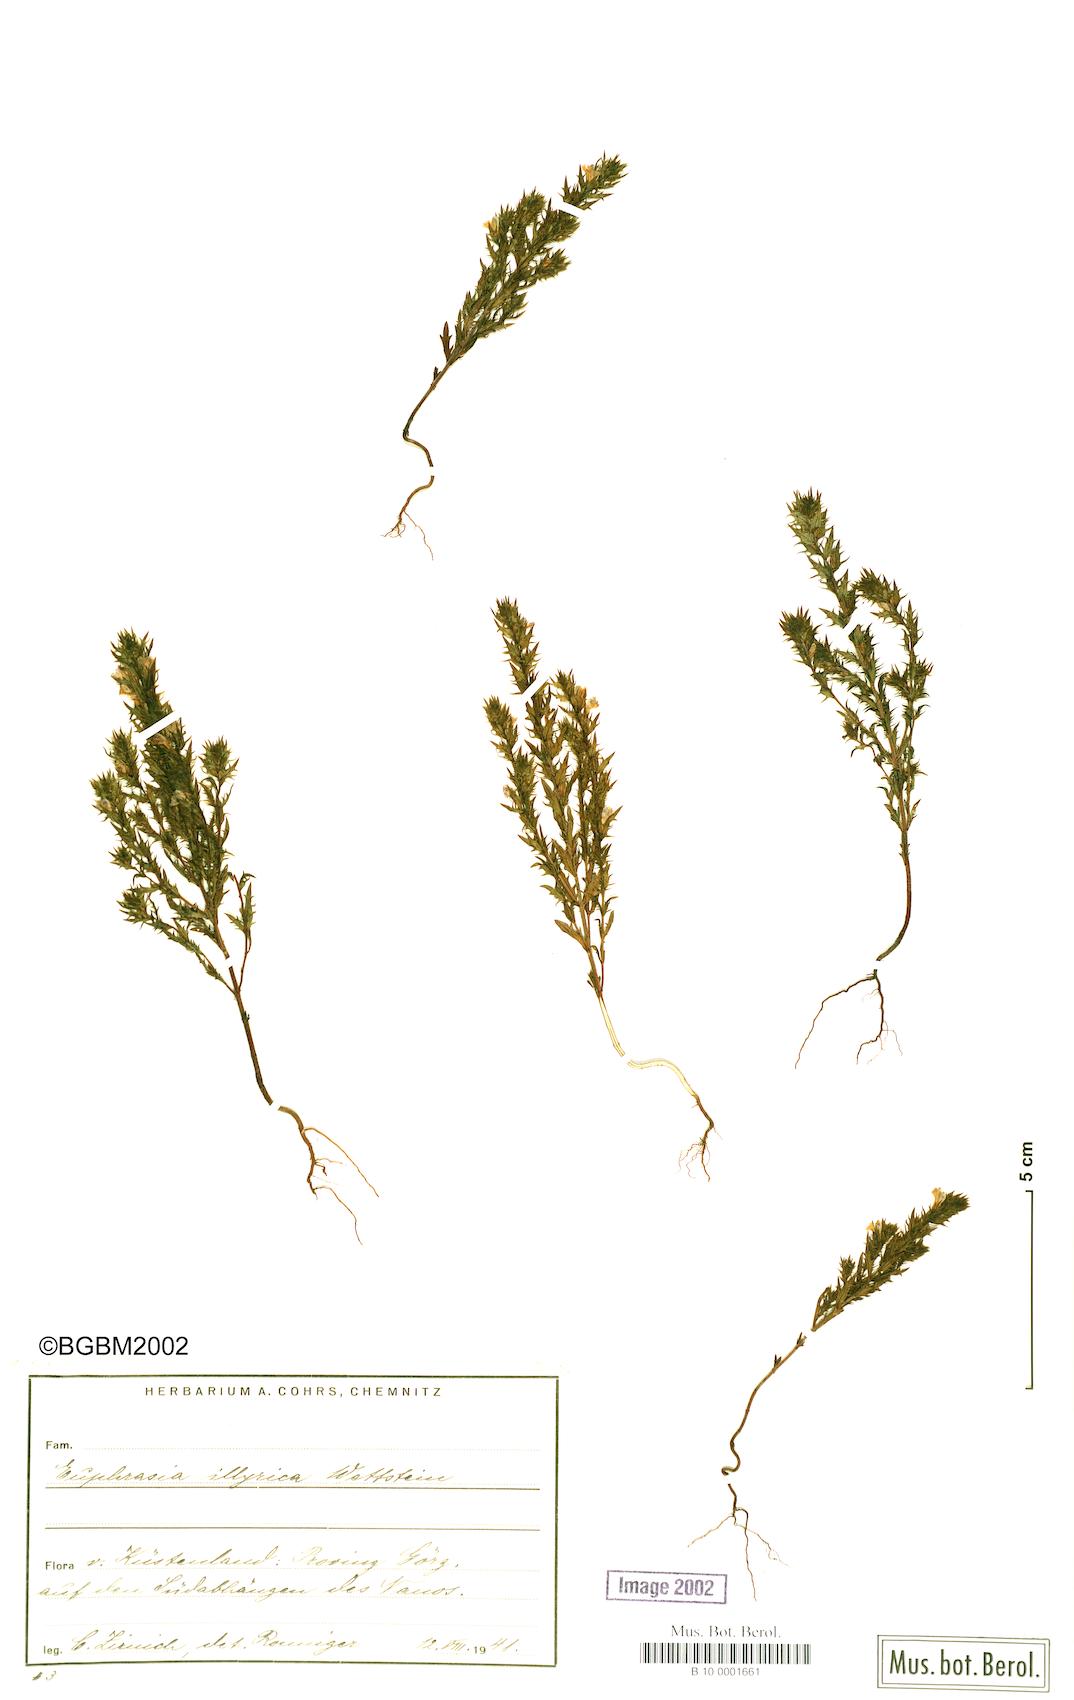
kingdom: Plantae
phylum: Tracheophyta
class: Magnoliopsida
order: Lamiales
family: Orobanchaceae
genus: Euphrasia
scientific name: Euphrasia illyrica
